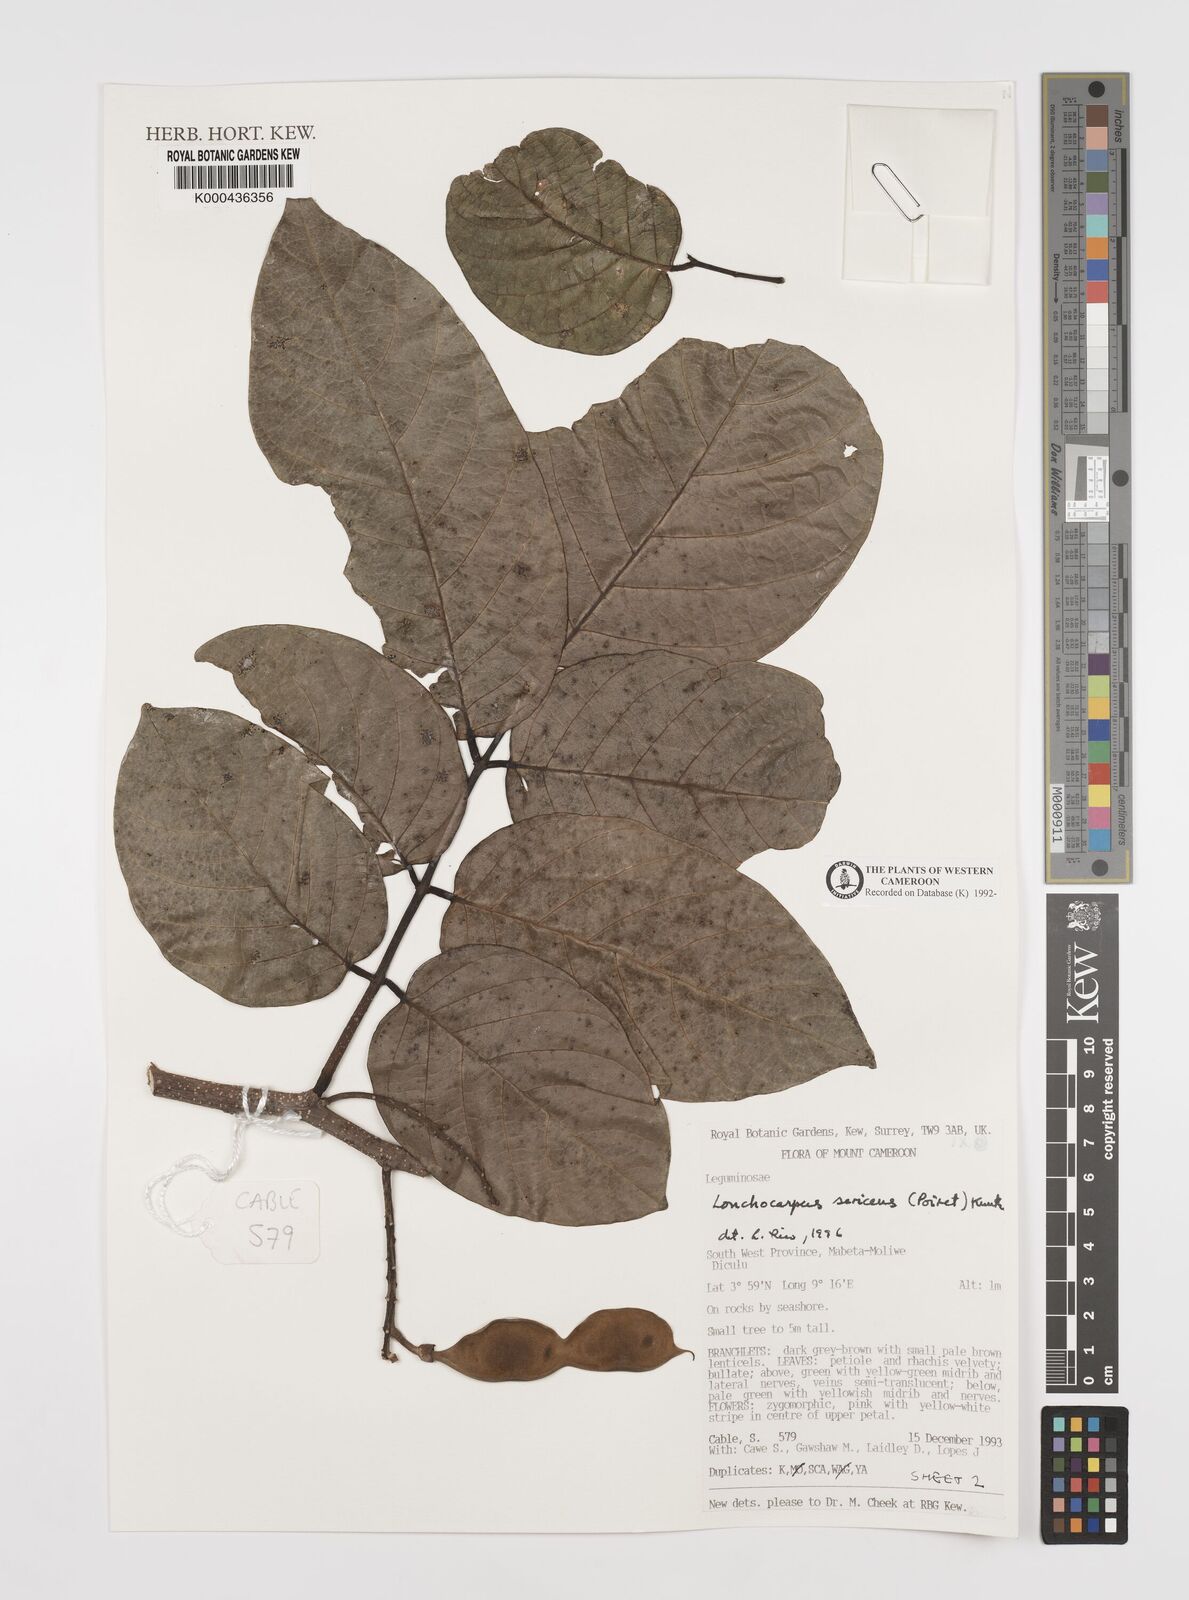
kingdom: Plantae
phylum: Tracheophyta
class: Magnoliopsida
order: Fabales
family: Fabaceae
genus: Lonchocarpus
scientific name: Lonchocarpus
